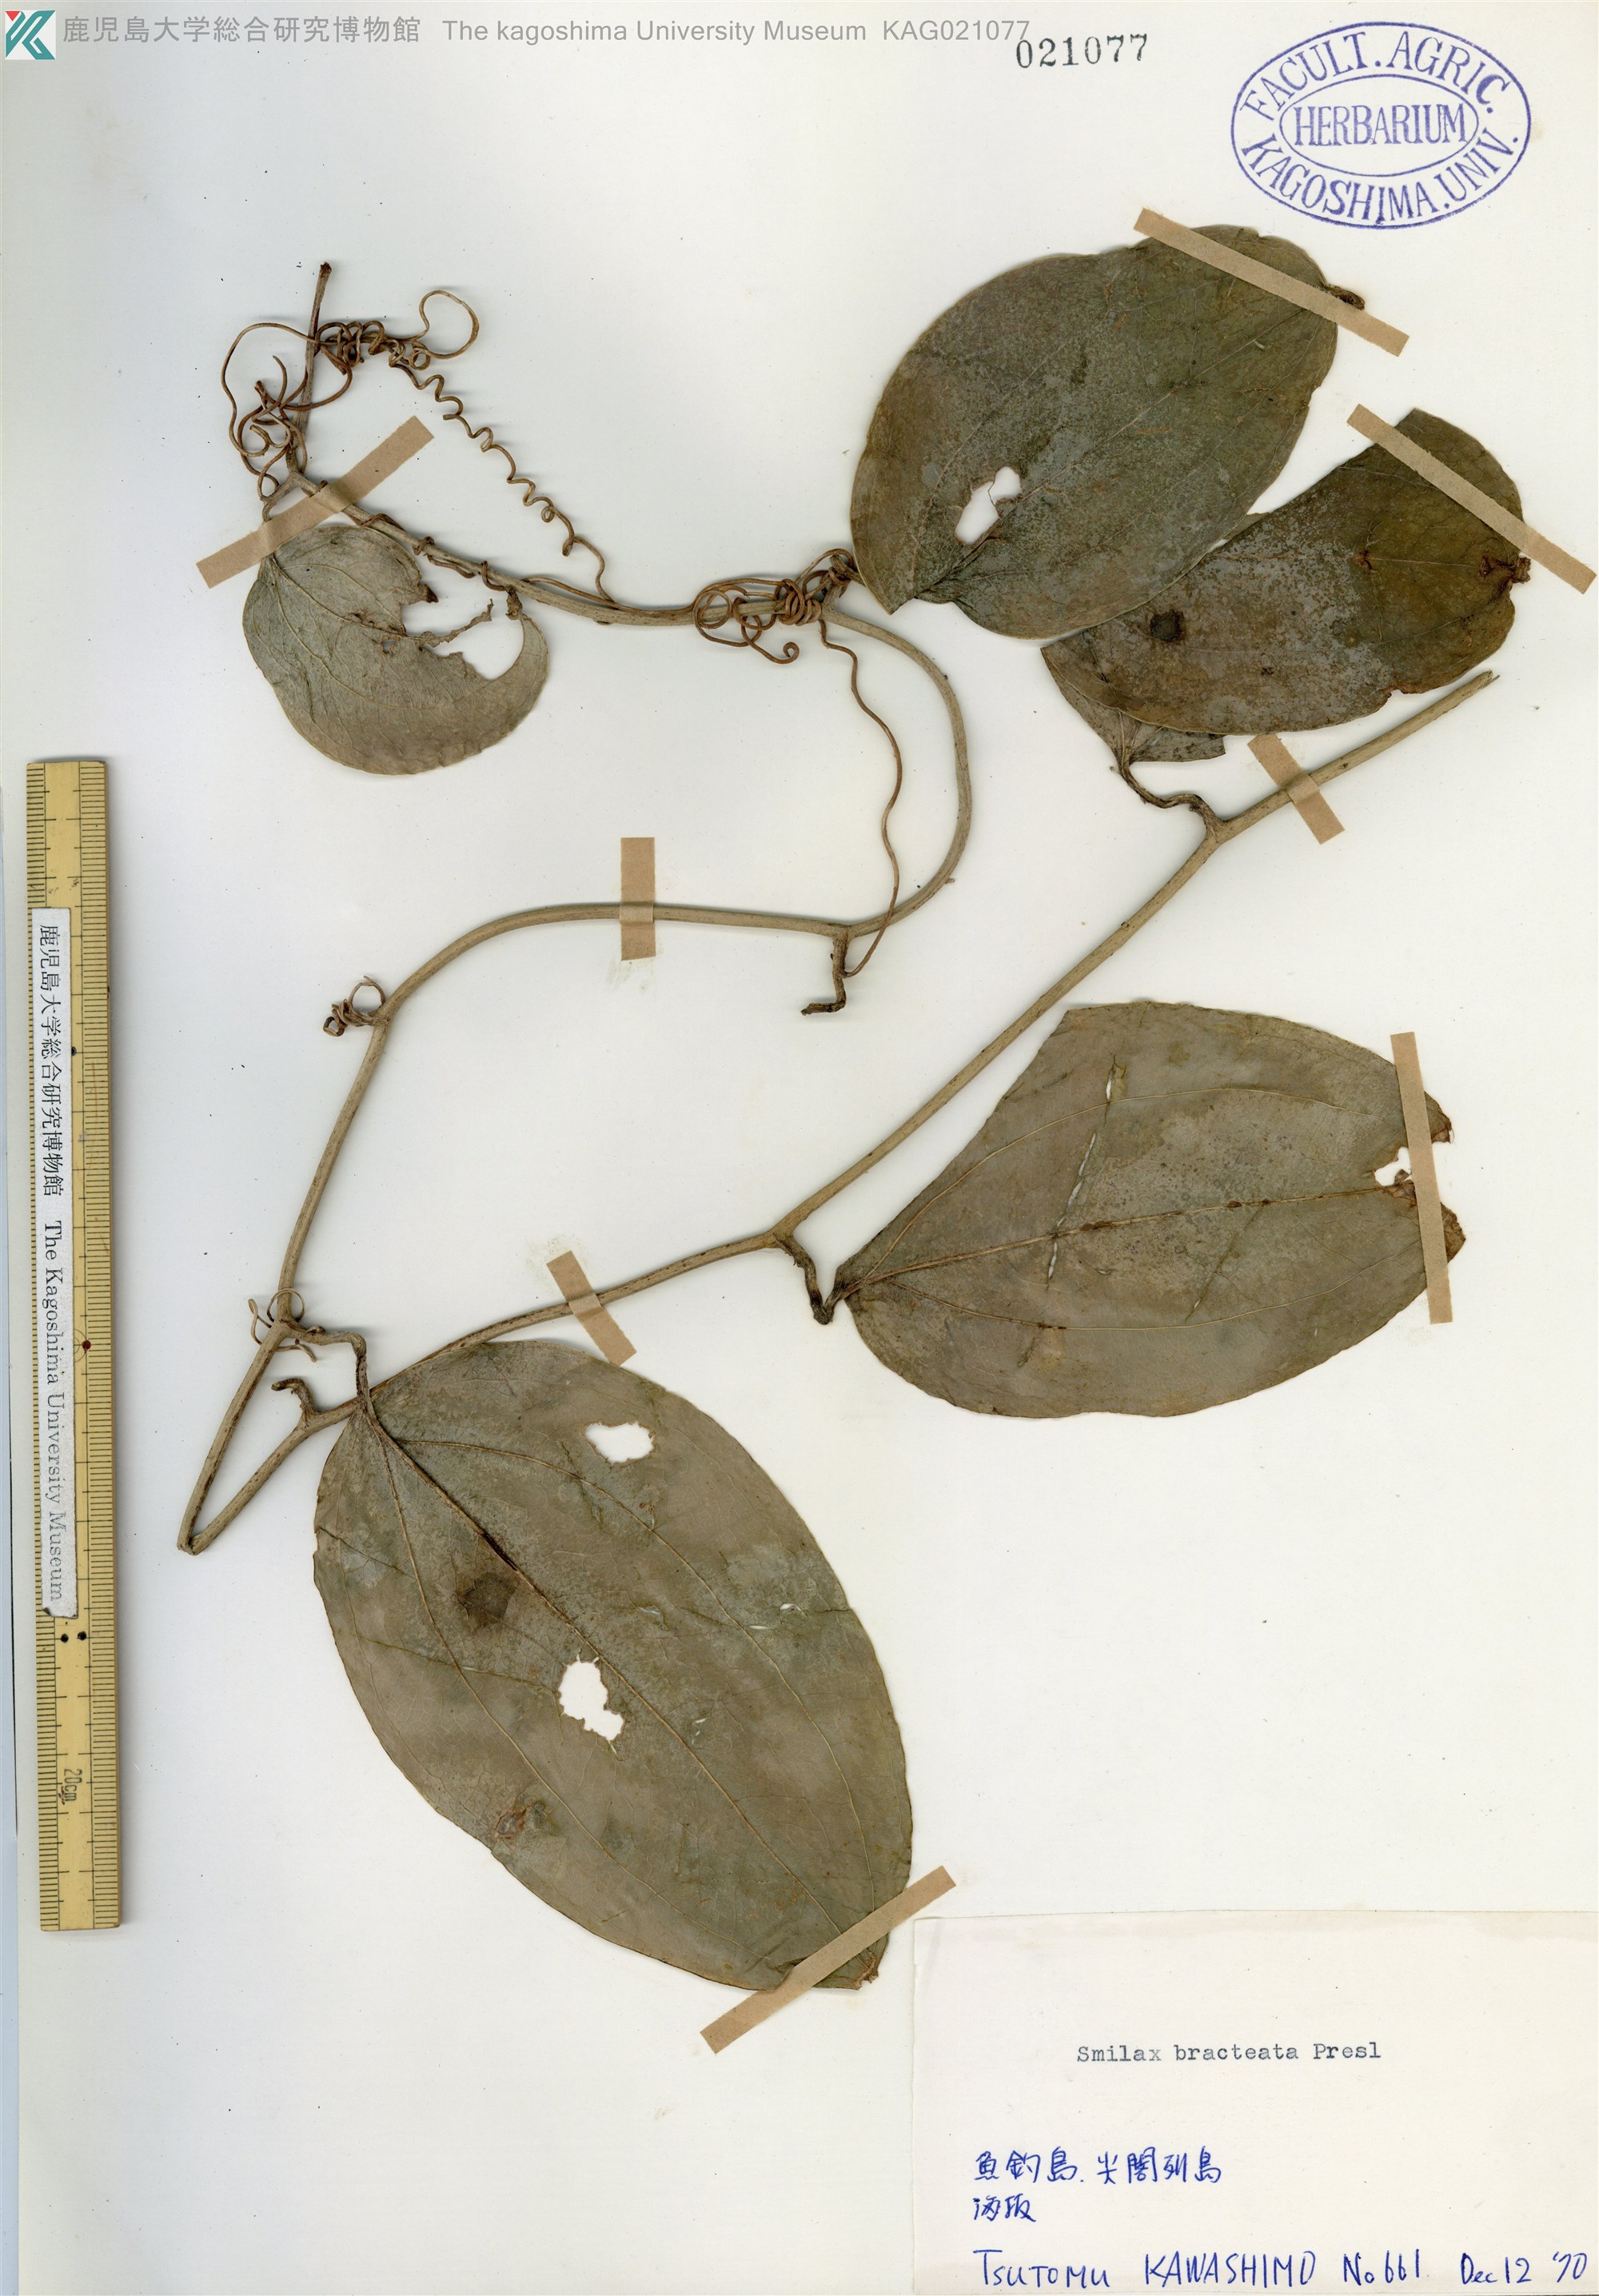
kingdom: Plantae
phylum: Tracheophyta
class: Liliopsida
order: Liliales
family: Smilacaceae
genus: Smilax
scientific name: Smilax bracteata
